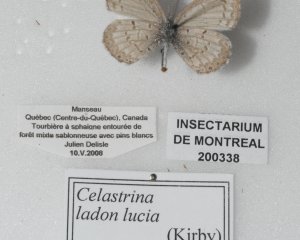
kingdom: Animalia
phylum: Arthropoda
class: Insecta
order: Lepidoptera
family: Lycaenidae
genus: Celastrina
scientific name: Celastrina lucia
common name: Northern Spring Azure
